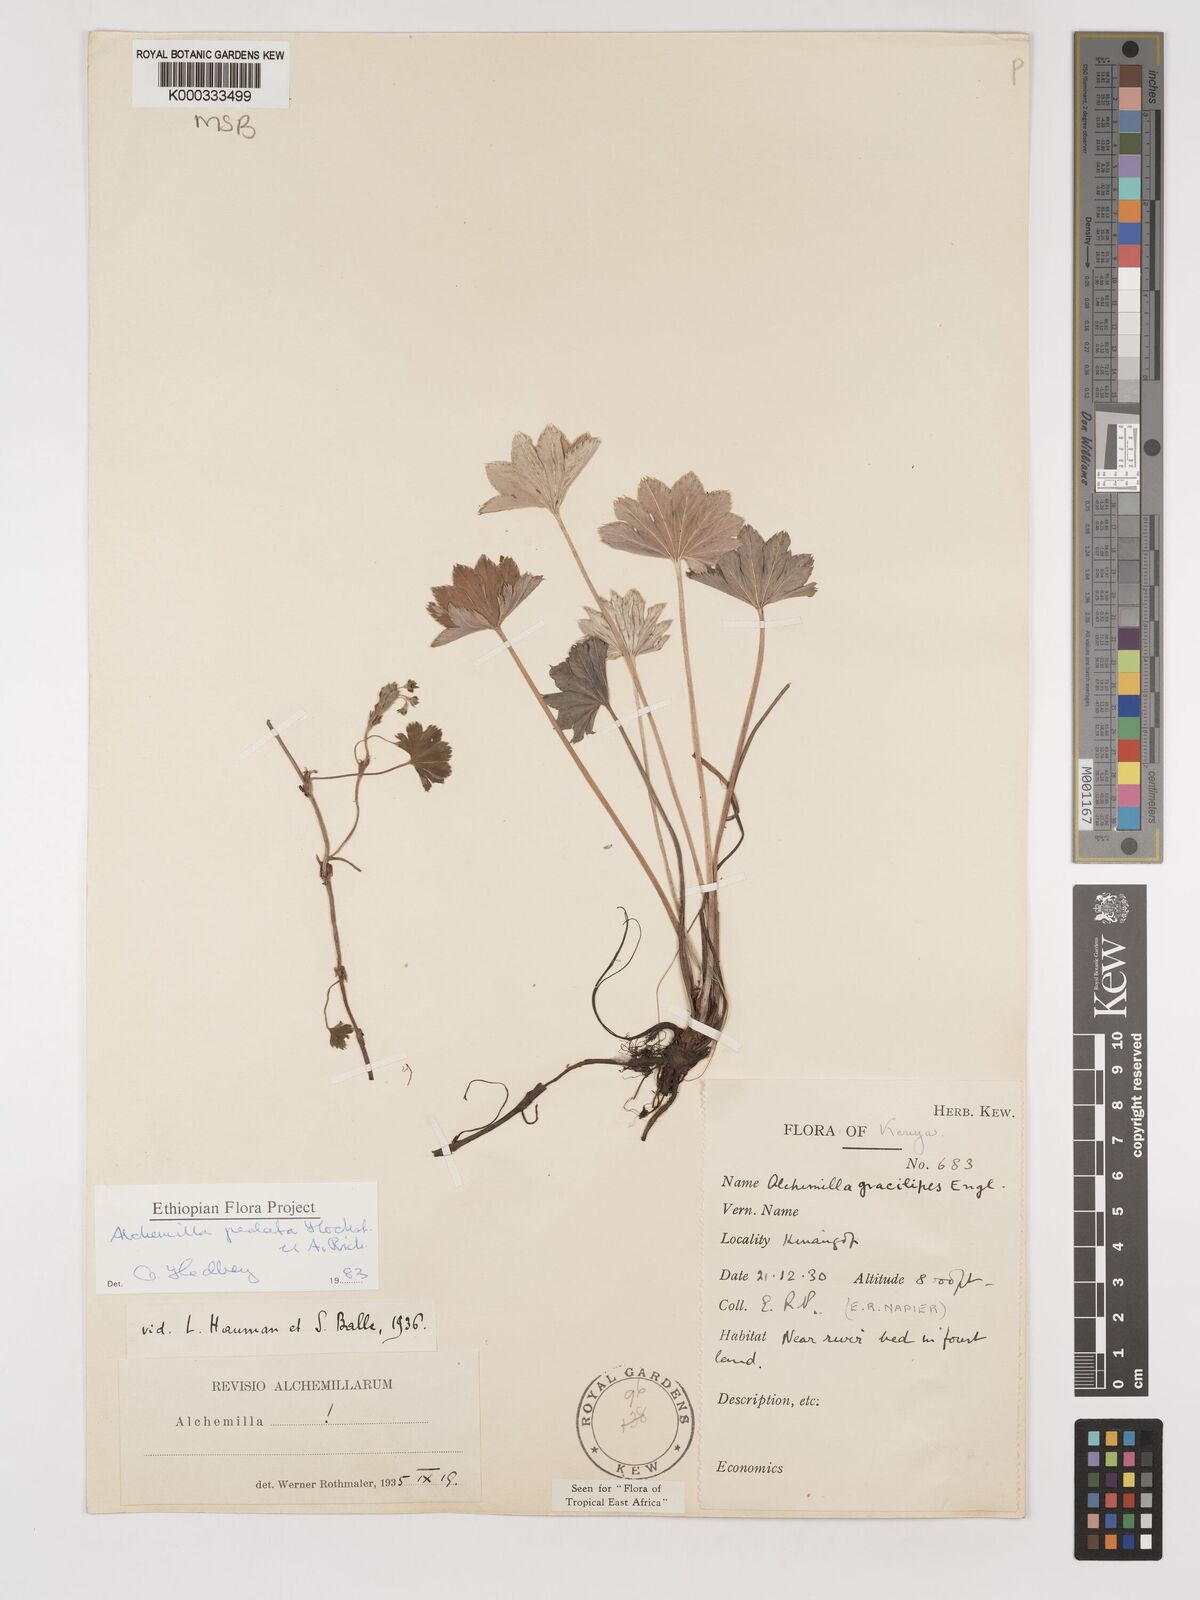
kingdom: Plantae
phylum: Tracheophyta
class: Magnoliopsida
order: Rosales
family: Rosaceae
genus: Alchemilla
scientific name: Alchemilla pedata
